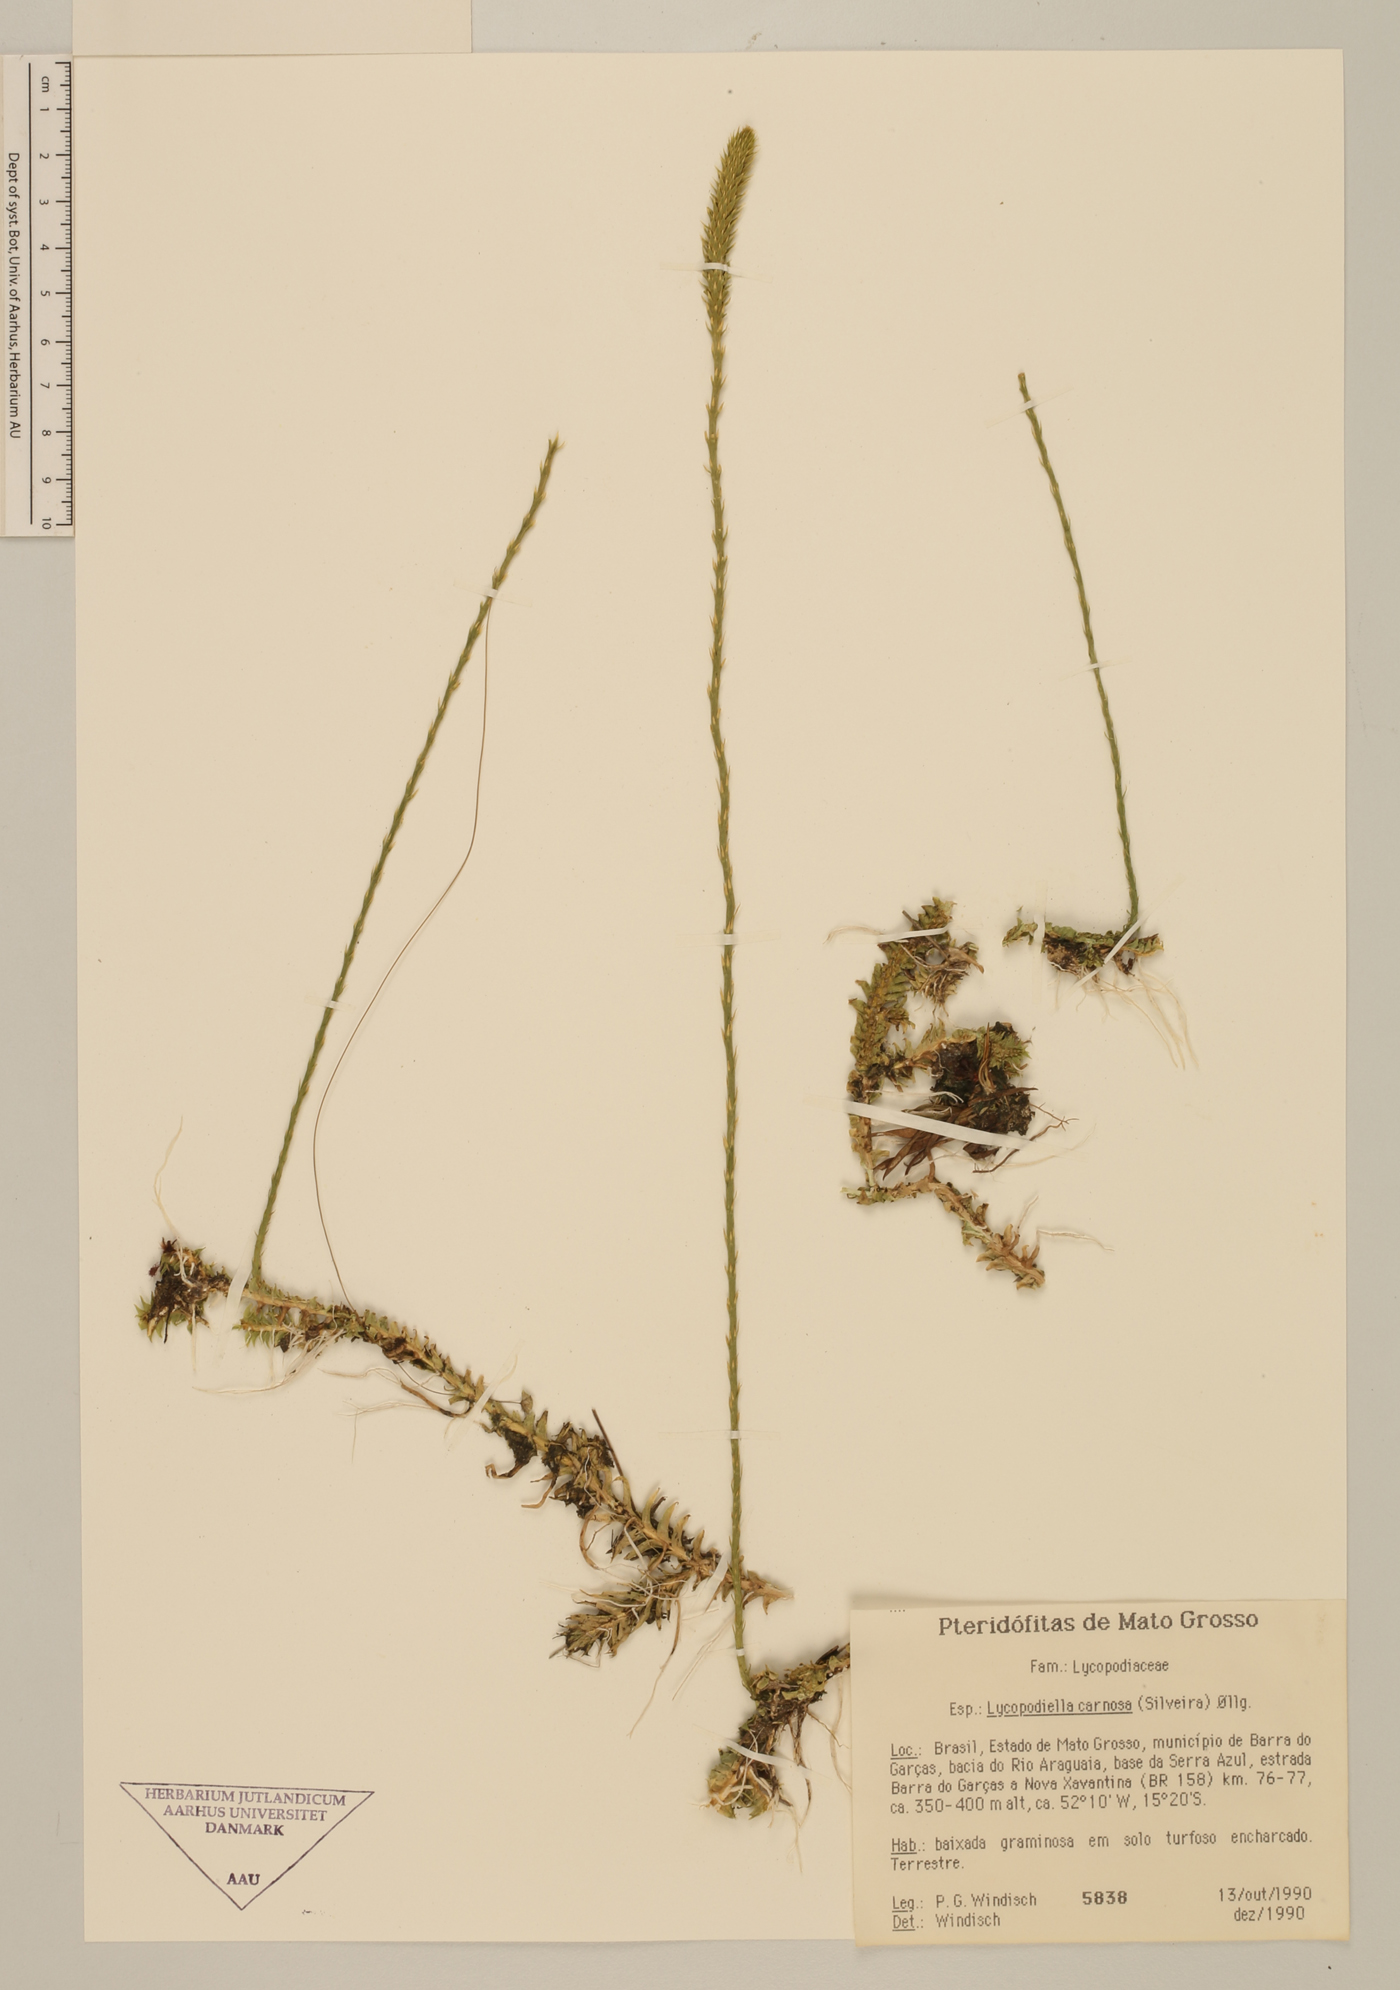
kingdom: Plantae
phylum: Tracheophyta
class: Lycopodiopsida
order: Lycopodiales
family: Lycopodiaceae
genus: Pseudolycopodiella
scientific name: Pseudolycopodiella carnosa
